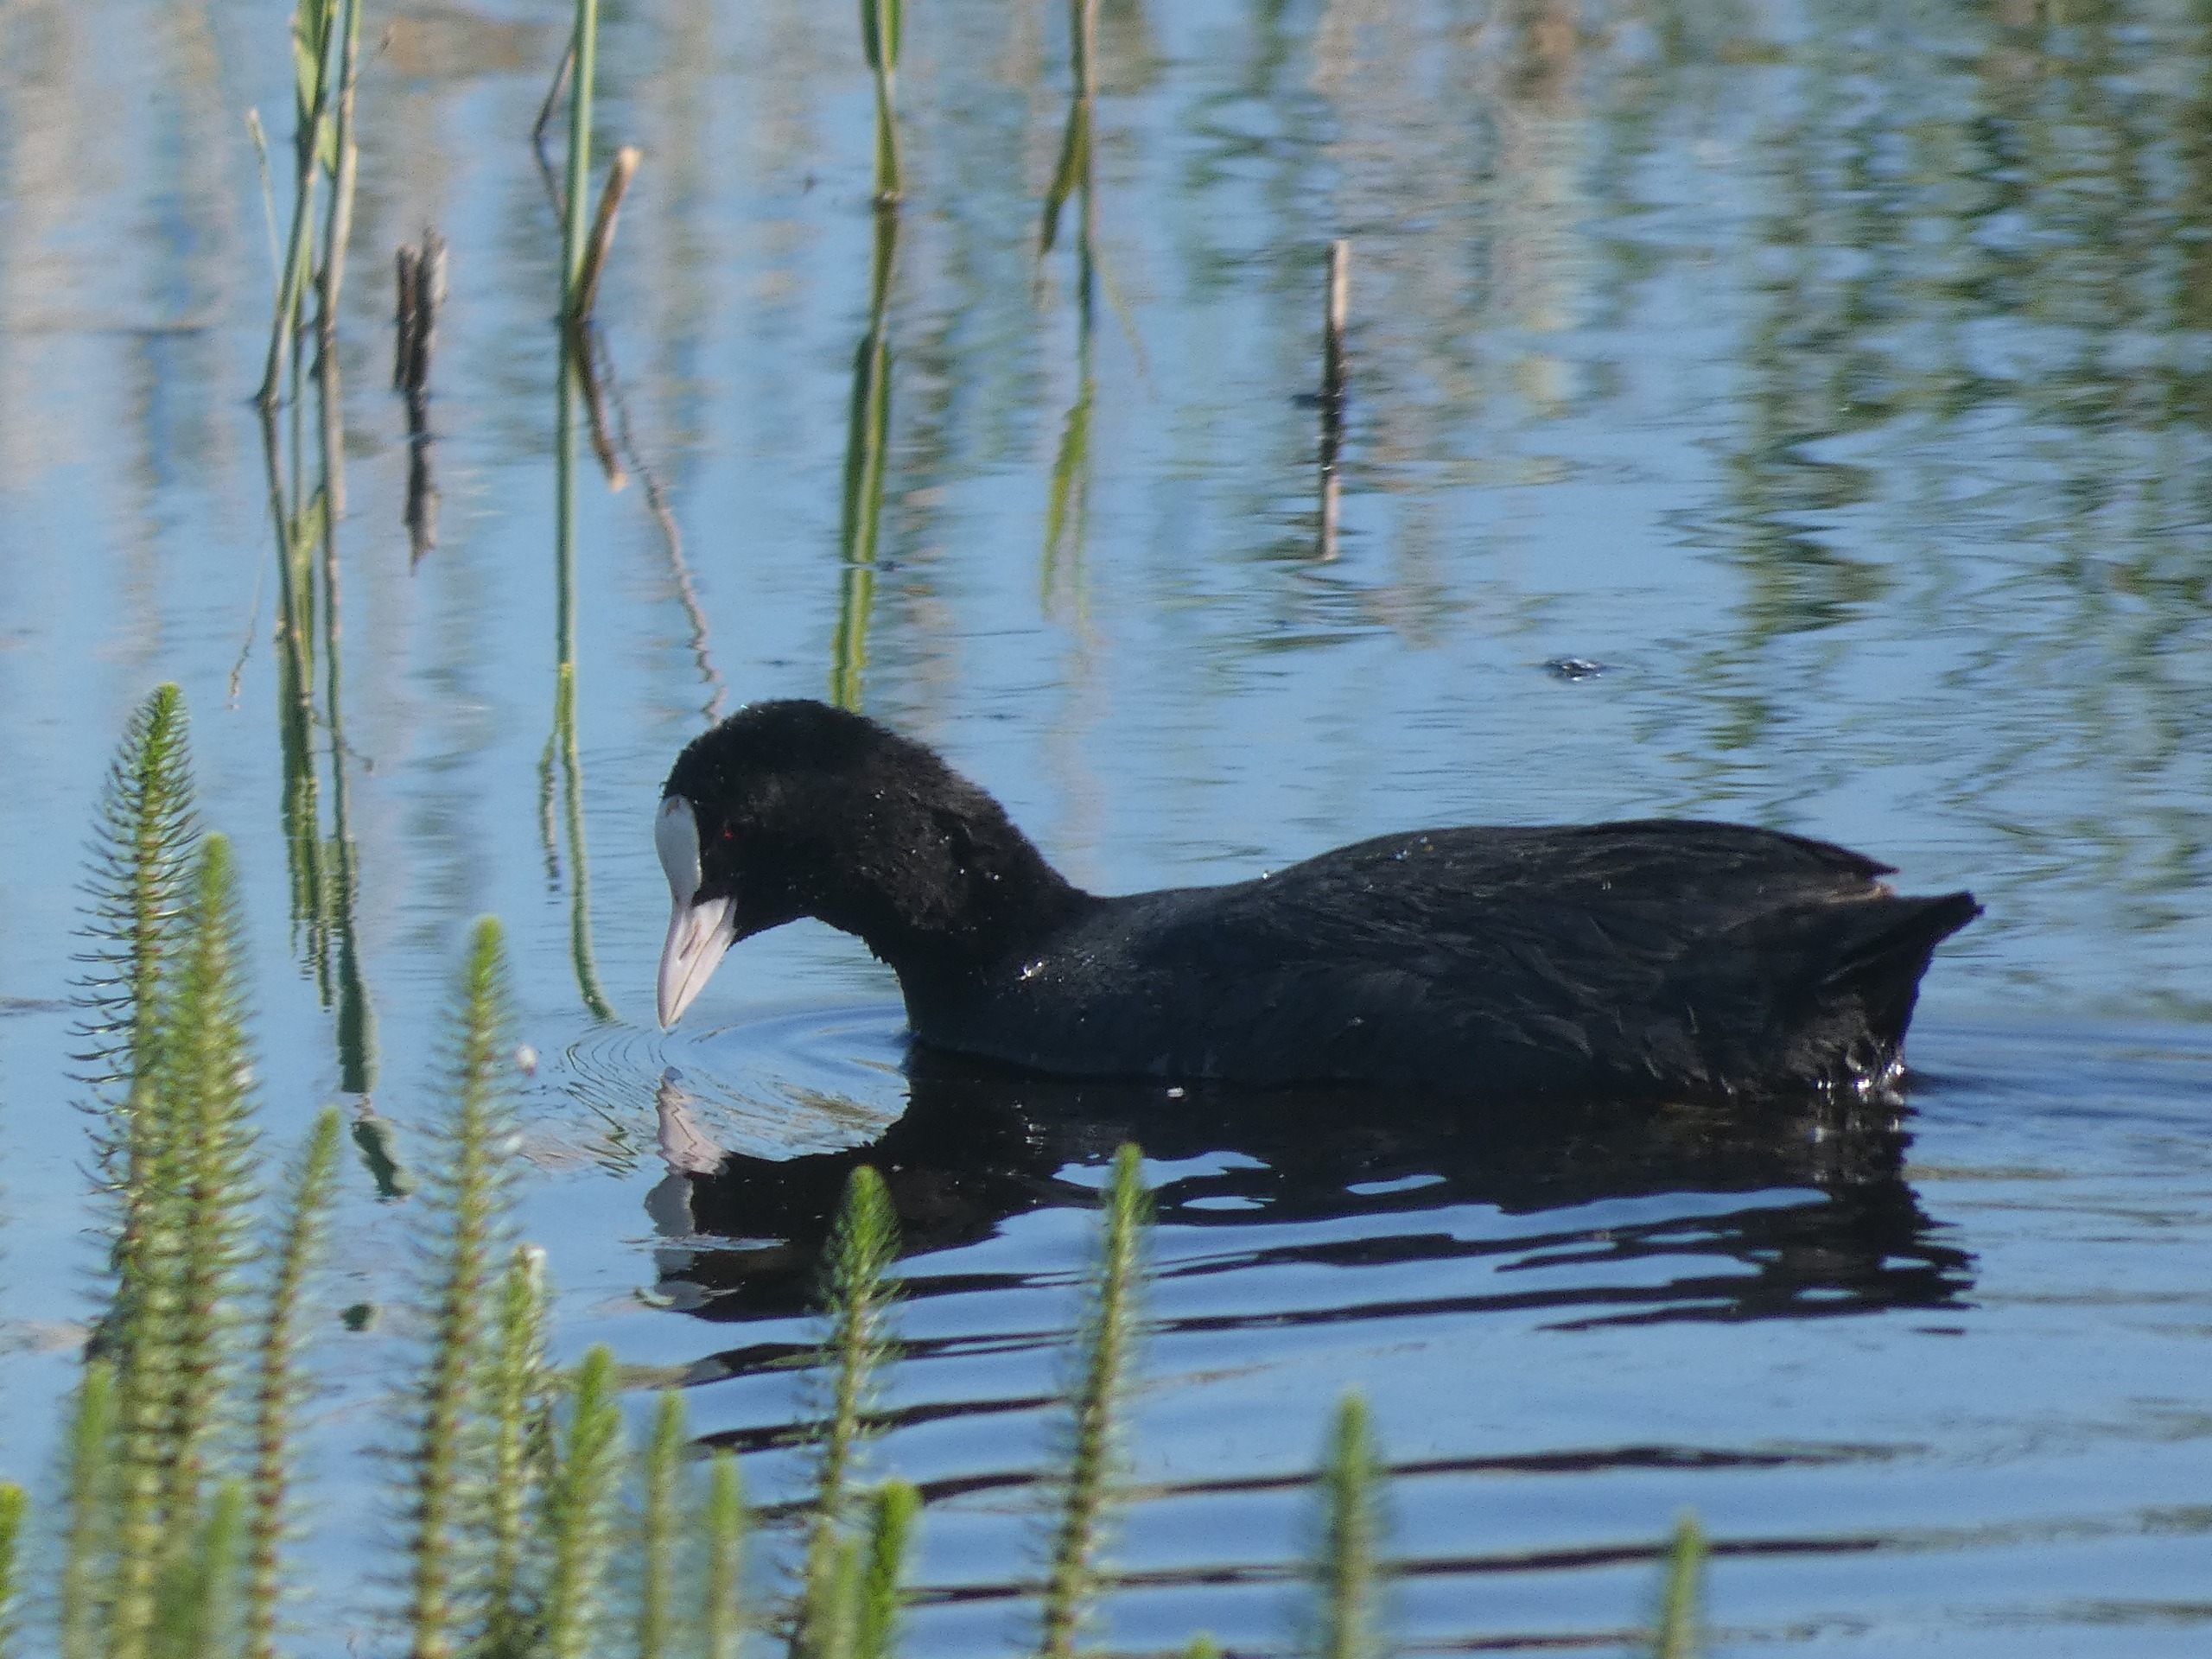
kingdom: Animalia
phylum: Chordata
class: Aves
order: Gruiformes
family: Rallidae
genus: Fulica
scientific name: Fulica atra
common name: Blishøne
